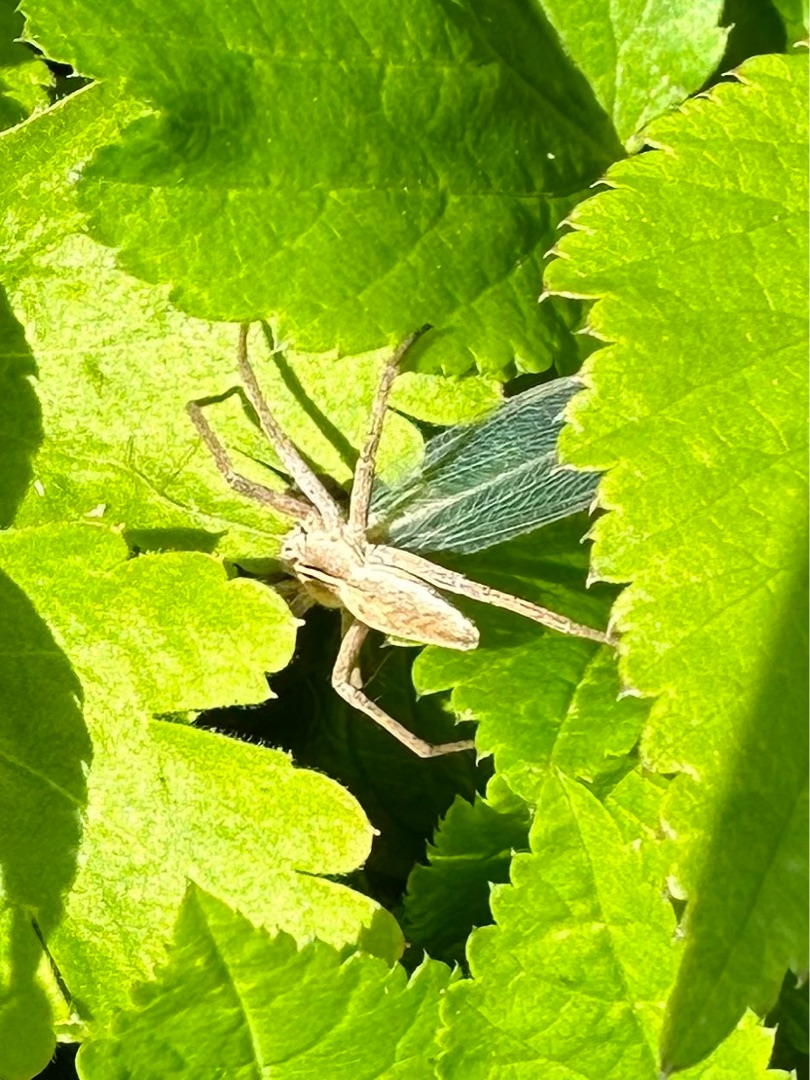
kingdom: Animalia
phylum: Arthropoda
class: Arachnida
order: Araneae
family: Pisauridae
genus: Pisaura
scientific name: Pisaura mirabilis
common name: Almindelig rovedderkop
